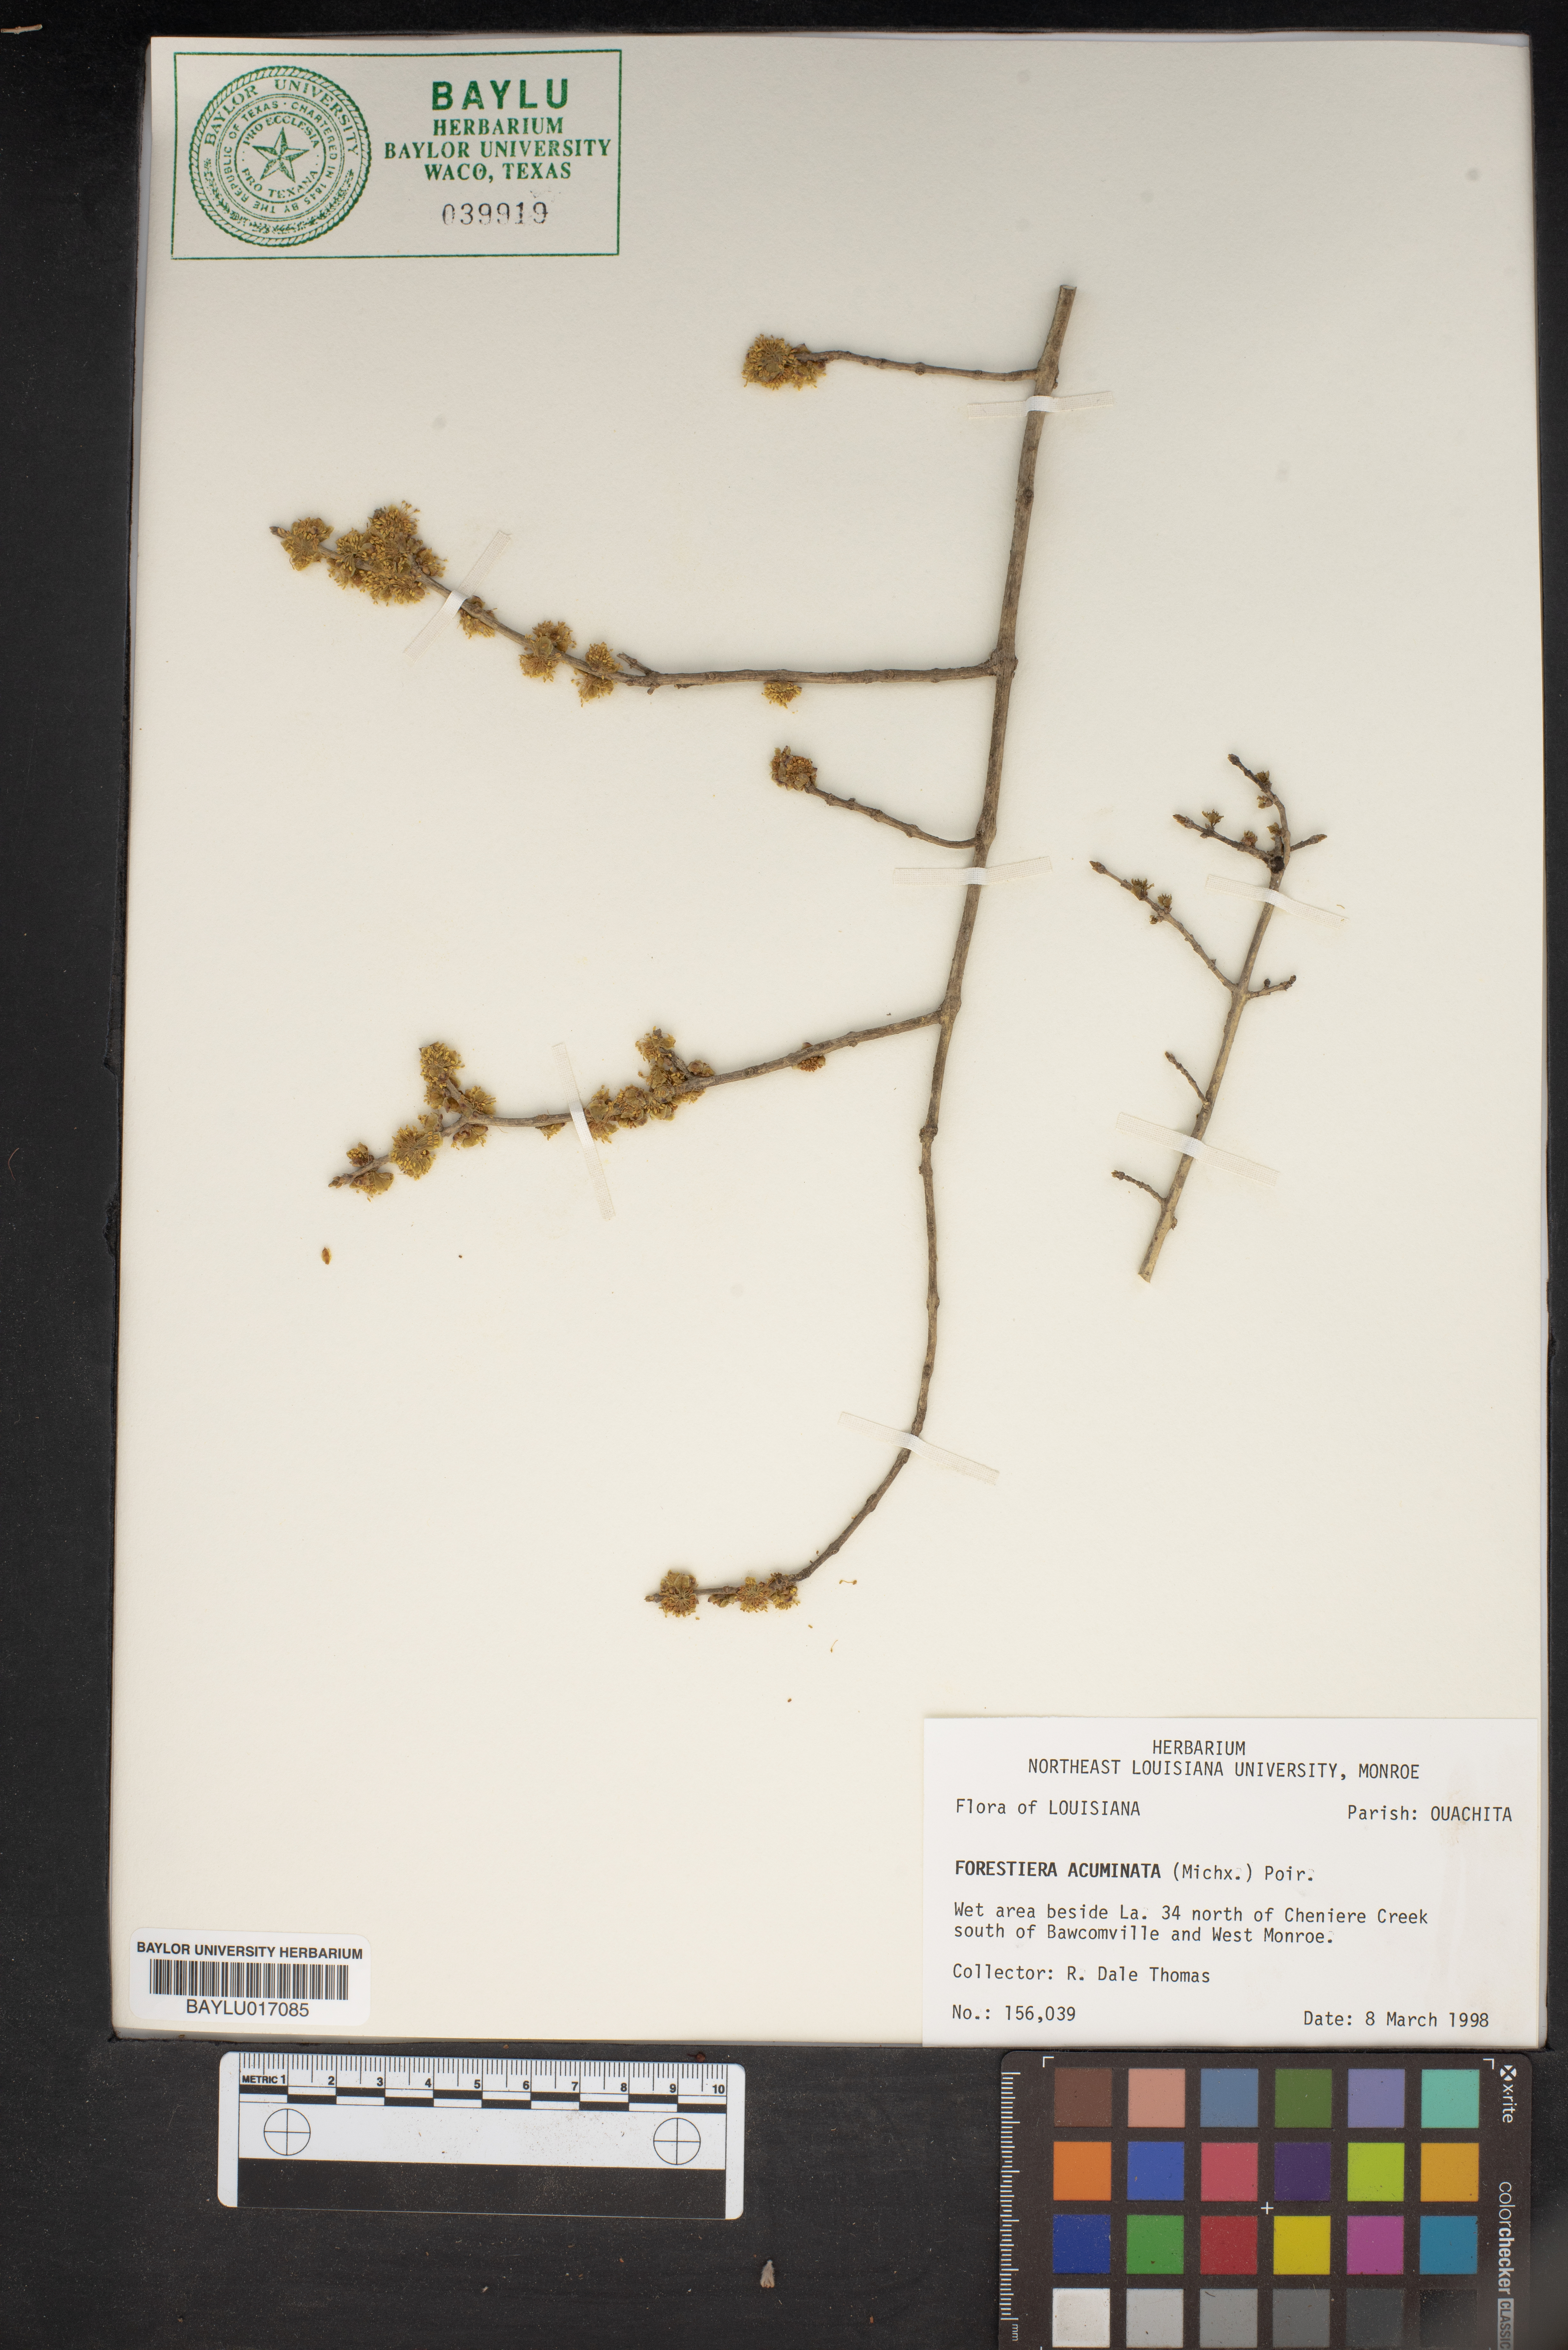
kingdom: Plantae
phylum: Tracheophyta
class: Magnoliopsida
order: Lamiales
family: Oleaceae
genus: Forestiera
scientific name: Forestiera acuminata
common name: Swamp-privet
